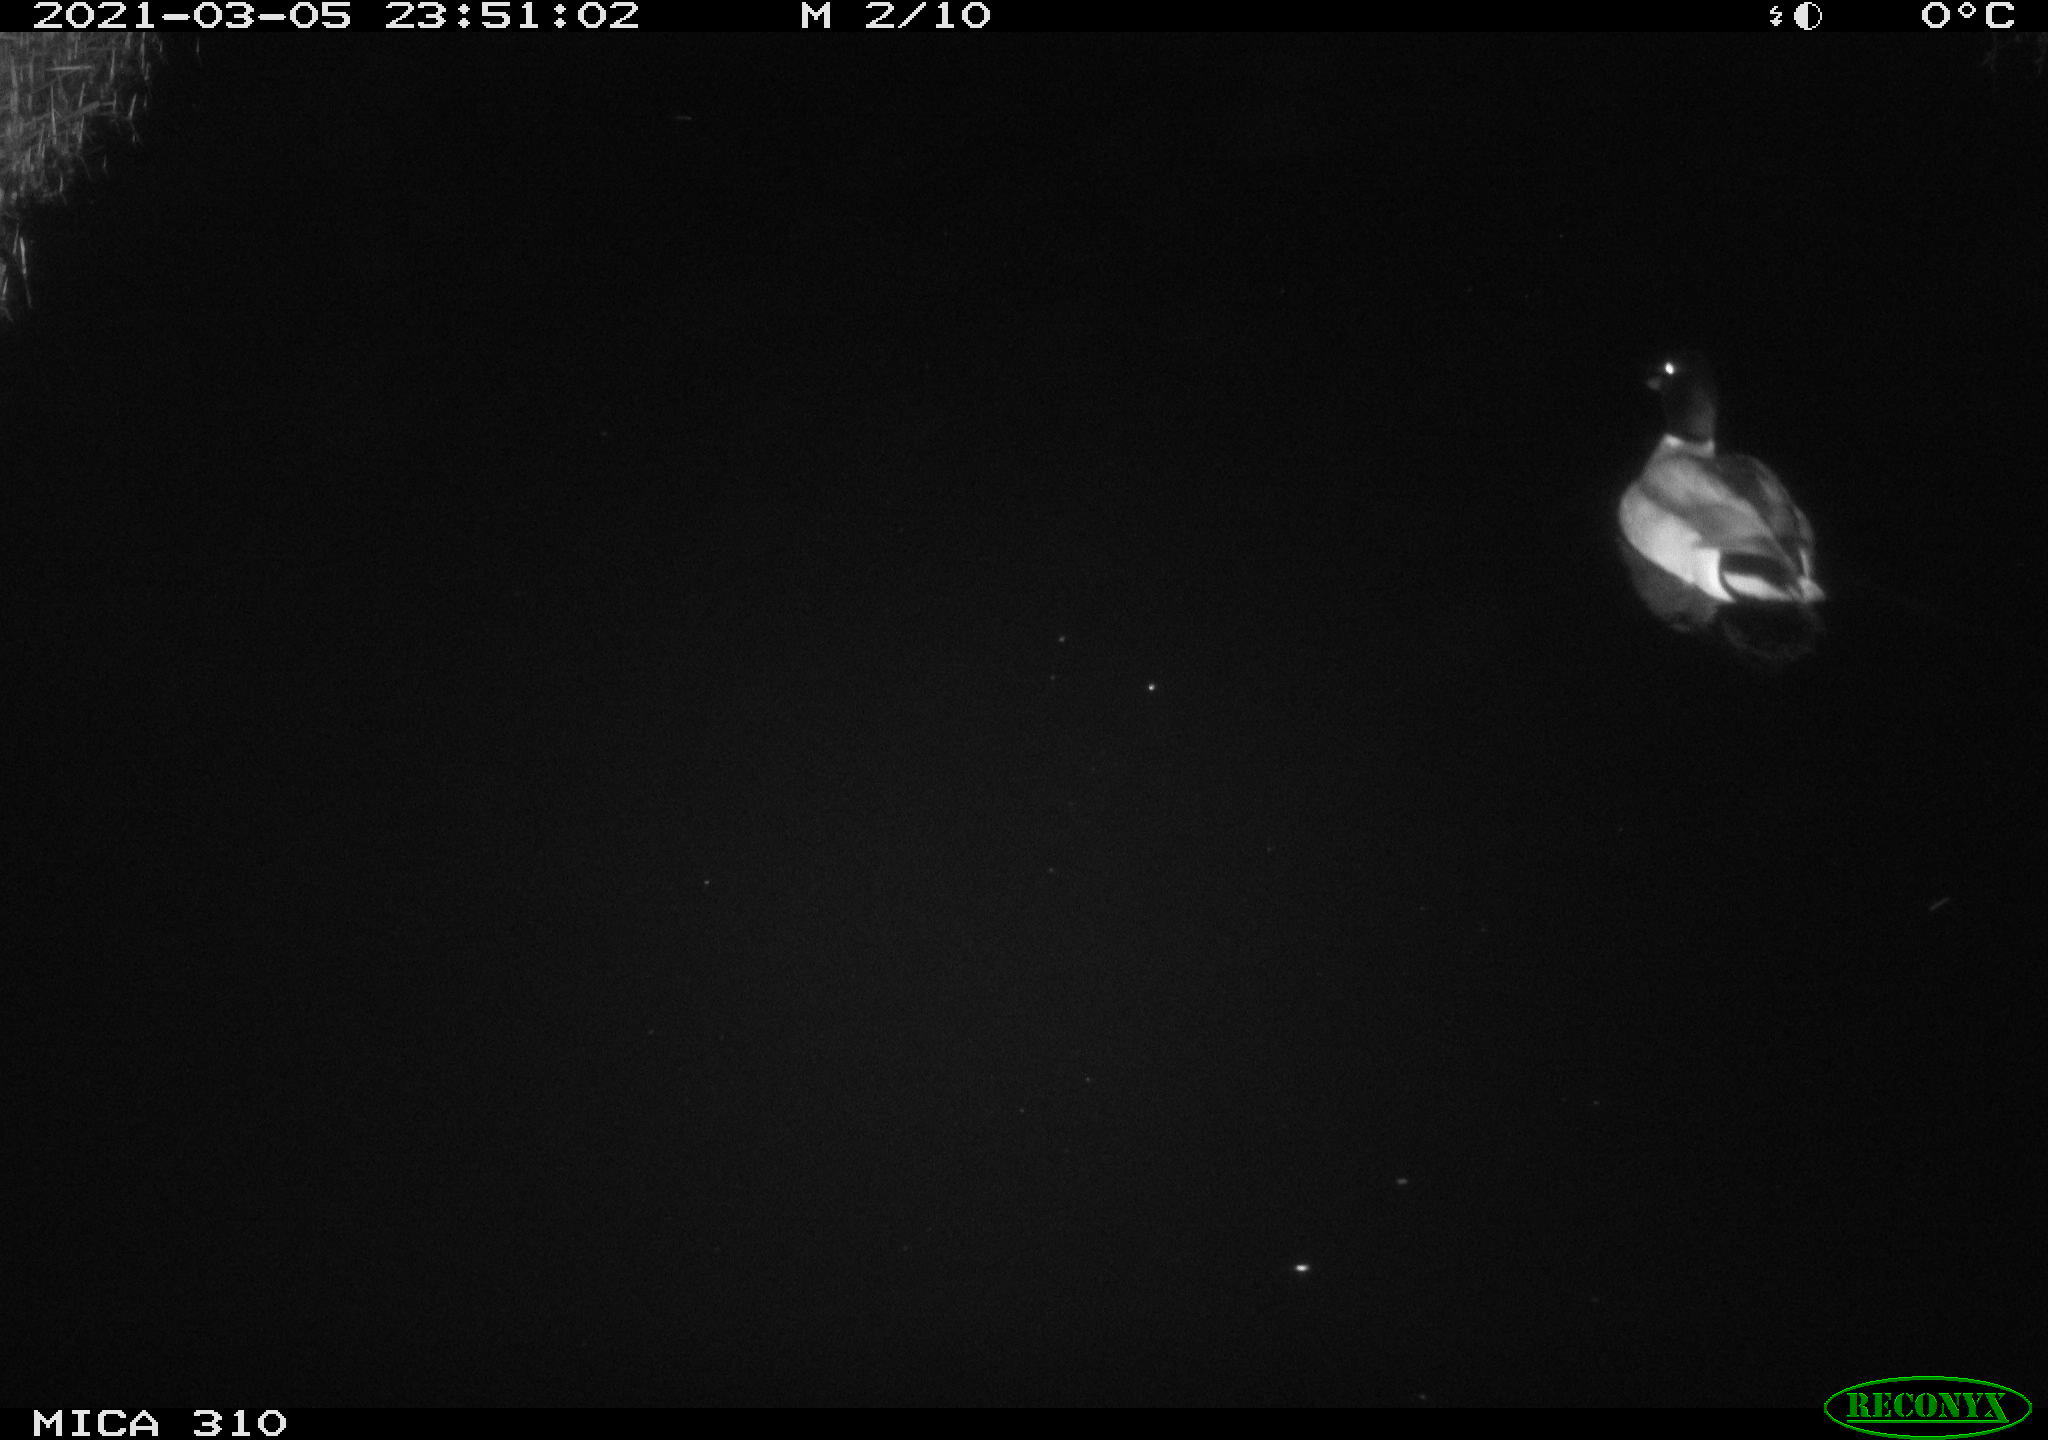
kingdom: Animalia
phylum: Chordata
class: Aves
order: Anseriformes
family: Anatidae
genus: Anas
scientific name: Anas platyrhynchos
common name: Mallard
